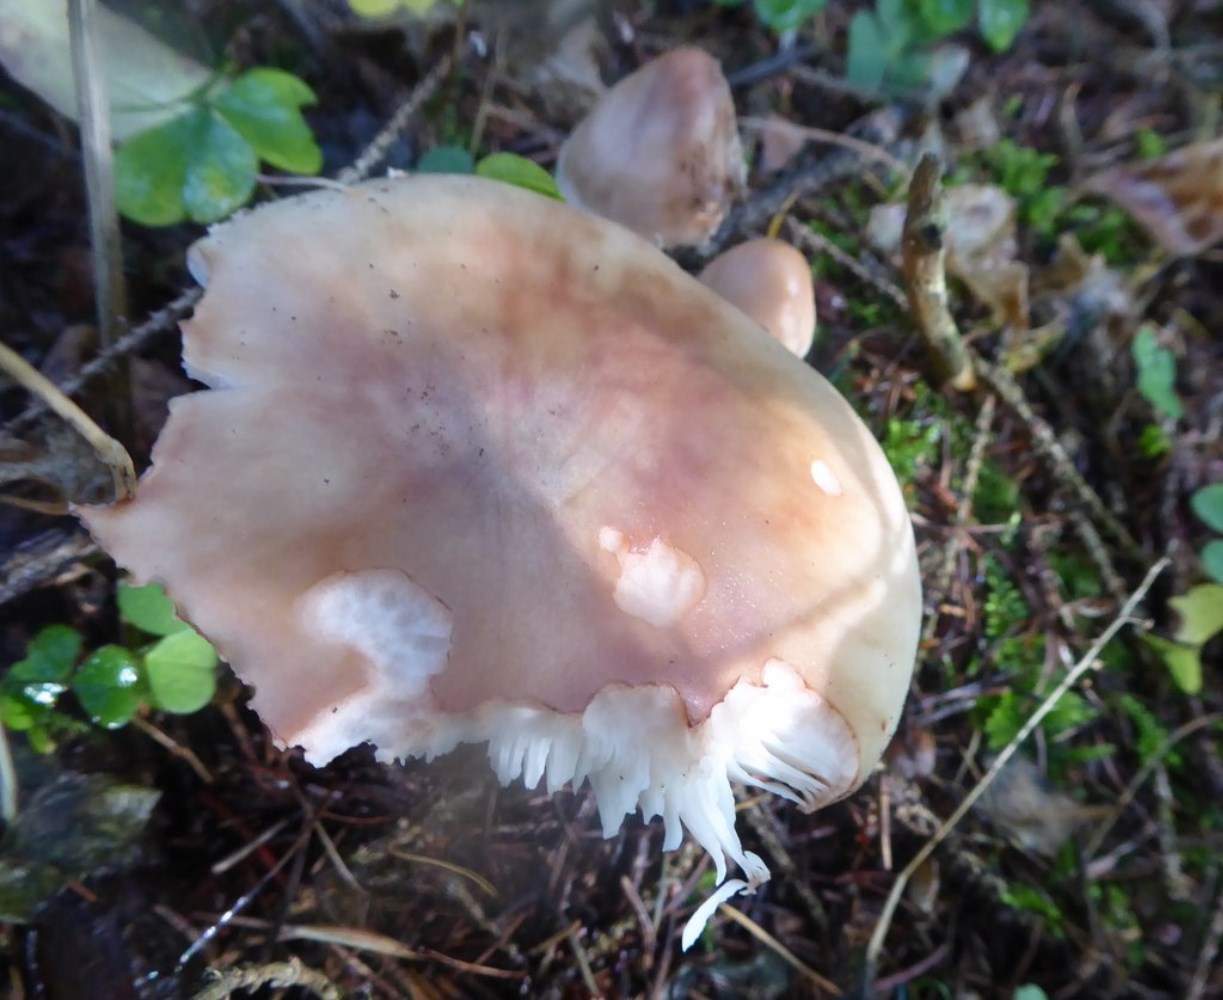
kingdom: Fungi
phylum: Basidiomycota
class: Agaricomycetes
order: Agaricales
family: Amanitaceae
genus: Amanita
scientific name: Amanita rubescens
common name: rødmende fluesvamp
